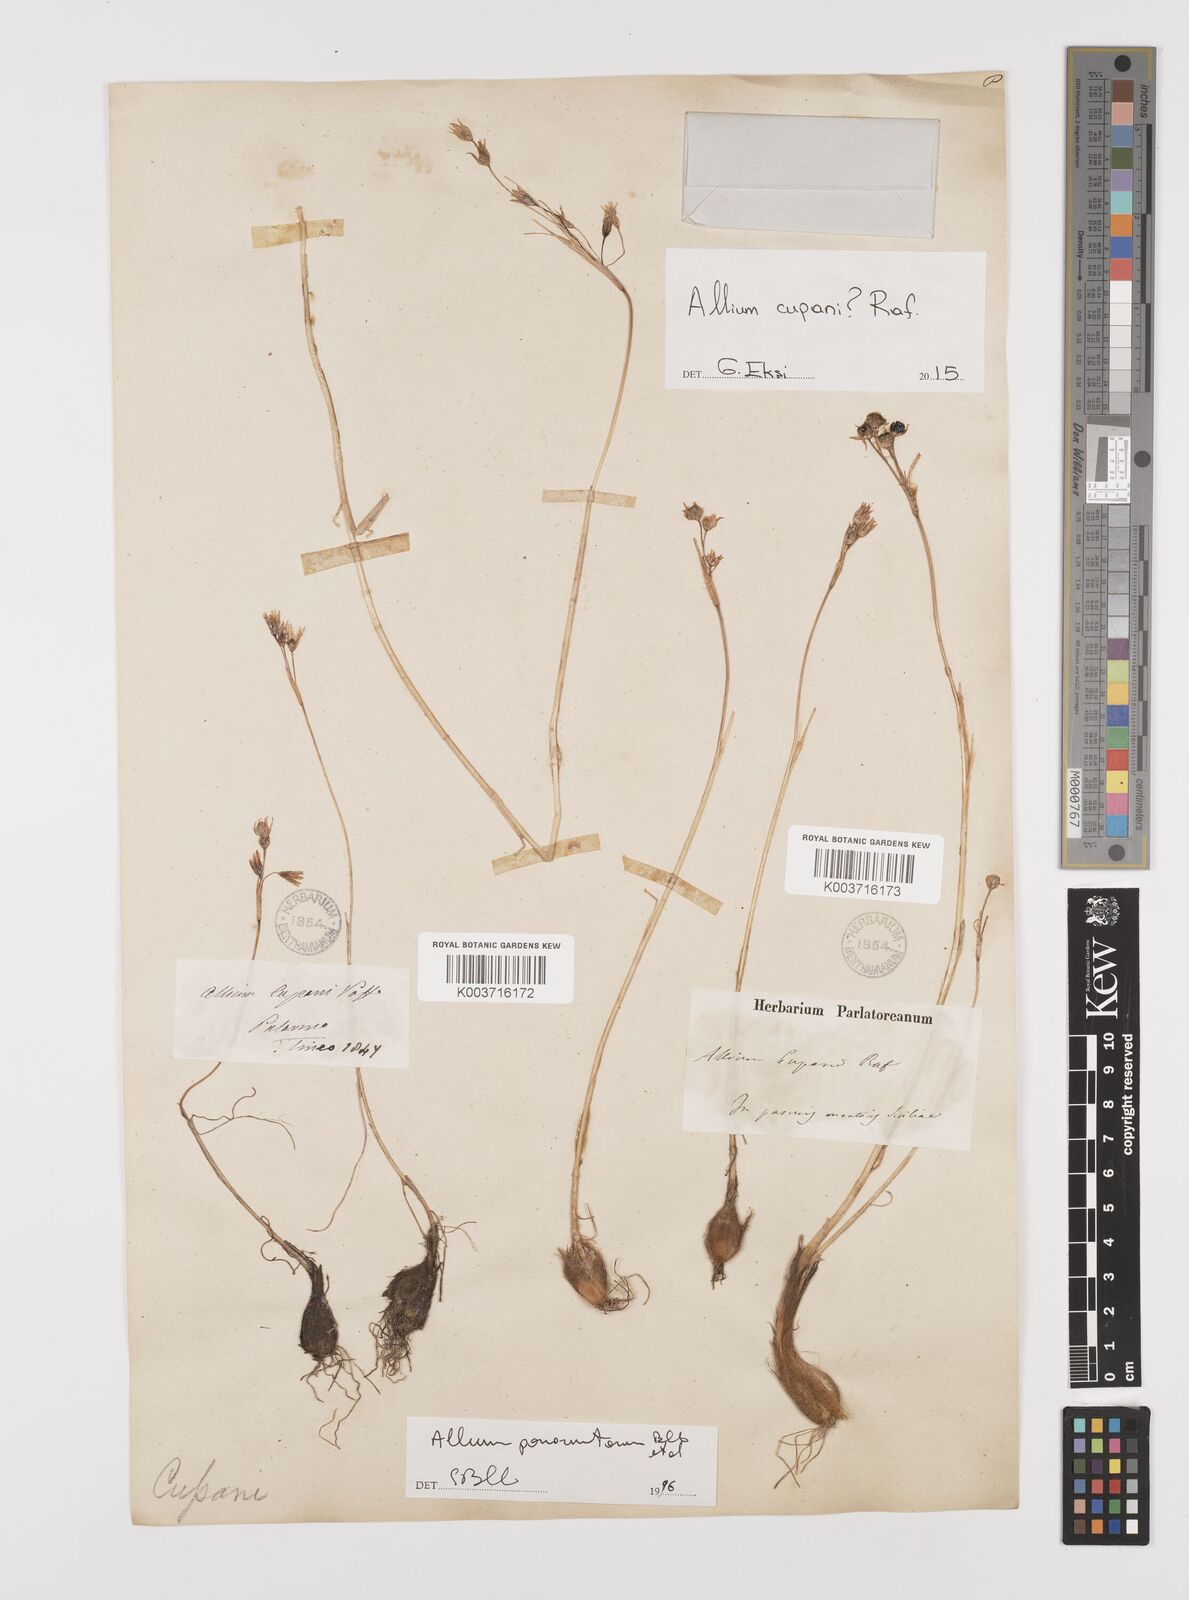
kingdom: Plantae
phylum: Tracheophyta
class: Liliopsida
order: Asparagales
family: Amaryllidaceae
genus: Allium
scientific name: Allium cupani
